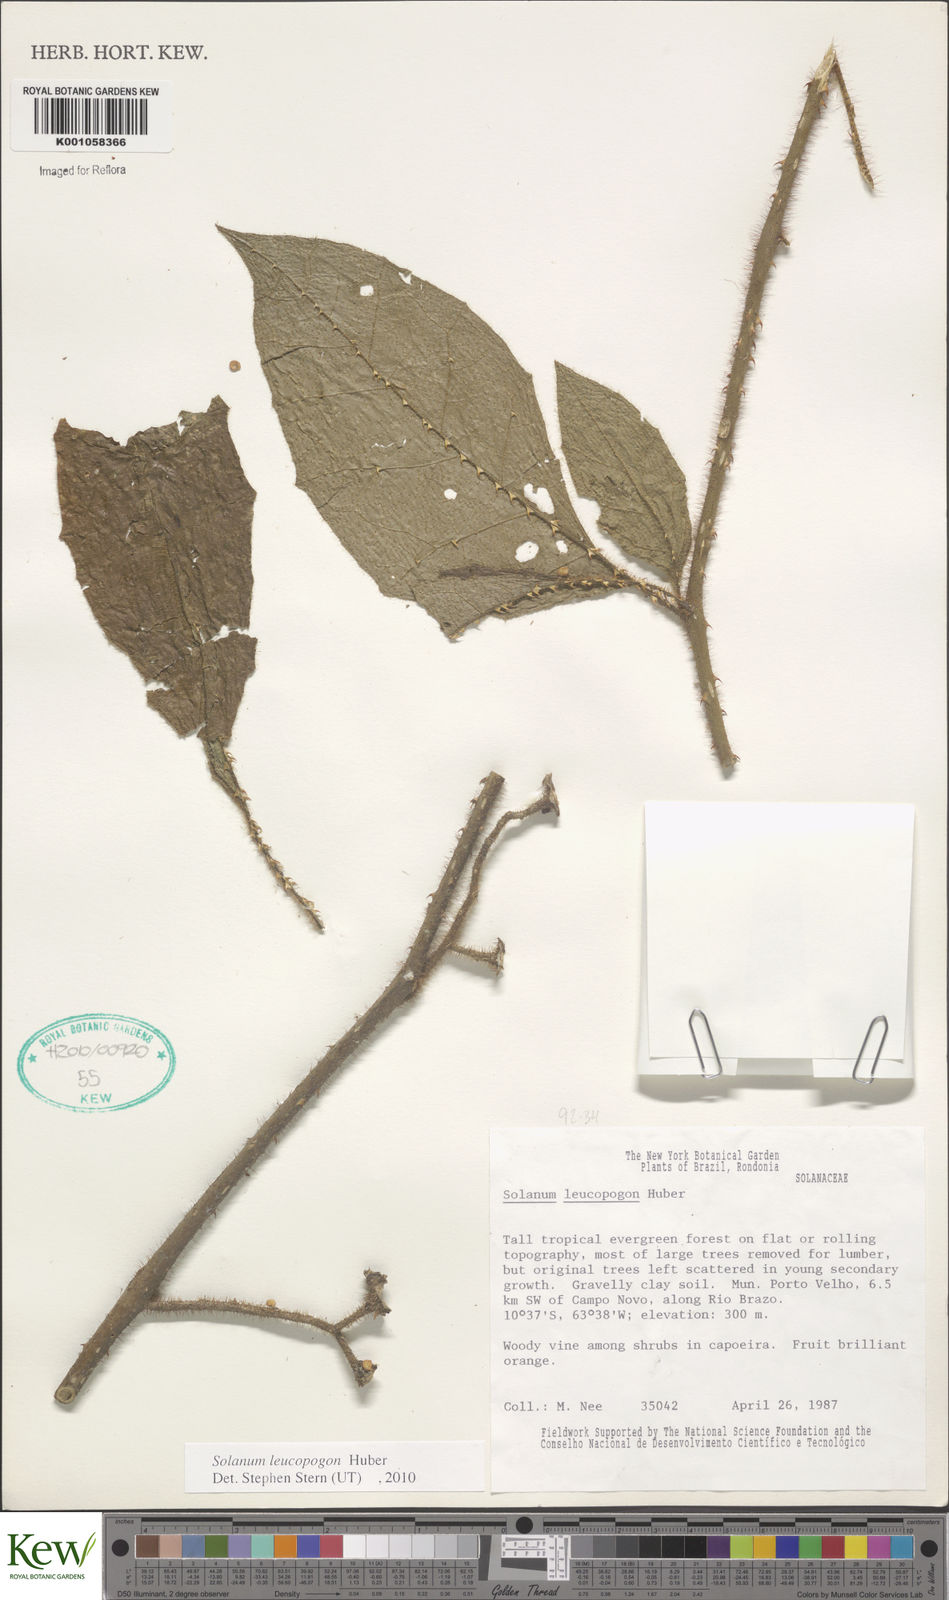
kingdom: Plantae
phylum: Tracheophyta
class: Magnoliopsida
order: Solanales
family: Solanaceae
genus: Solanum
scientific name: Solanum leucopogon
